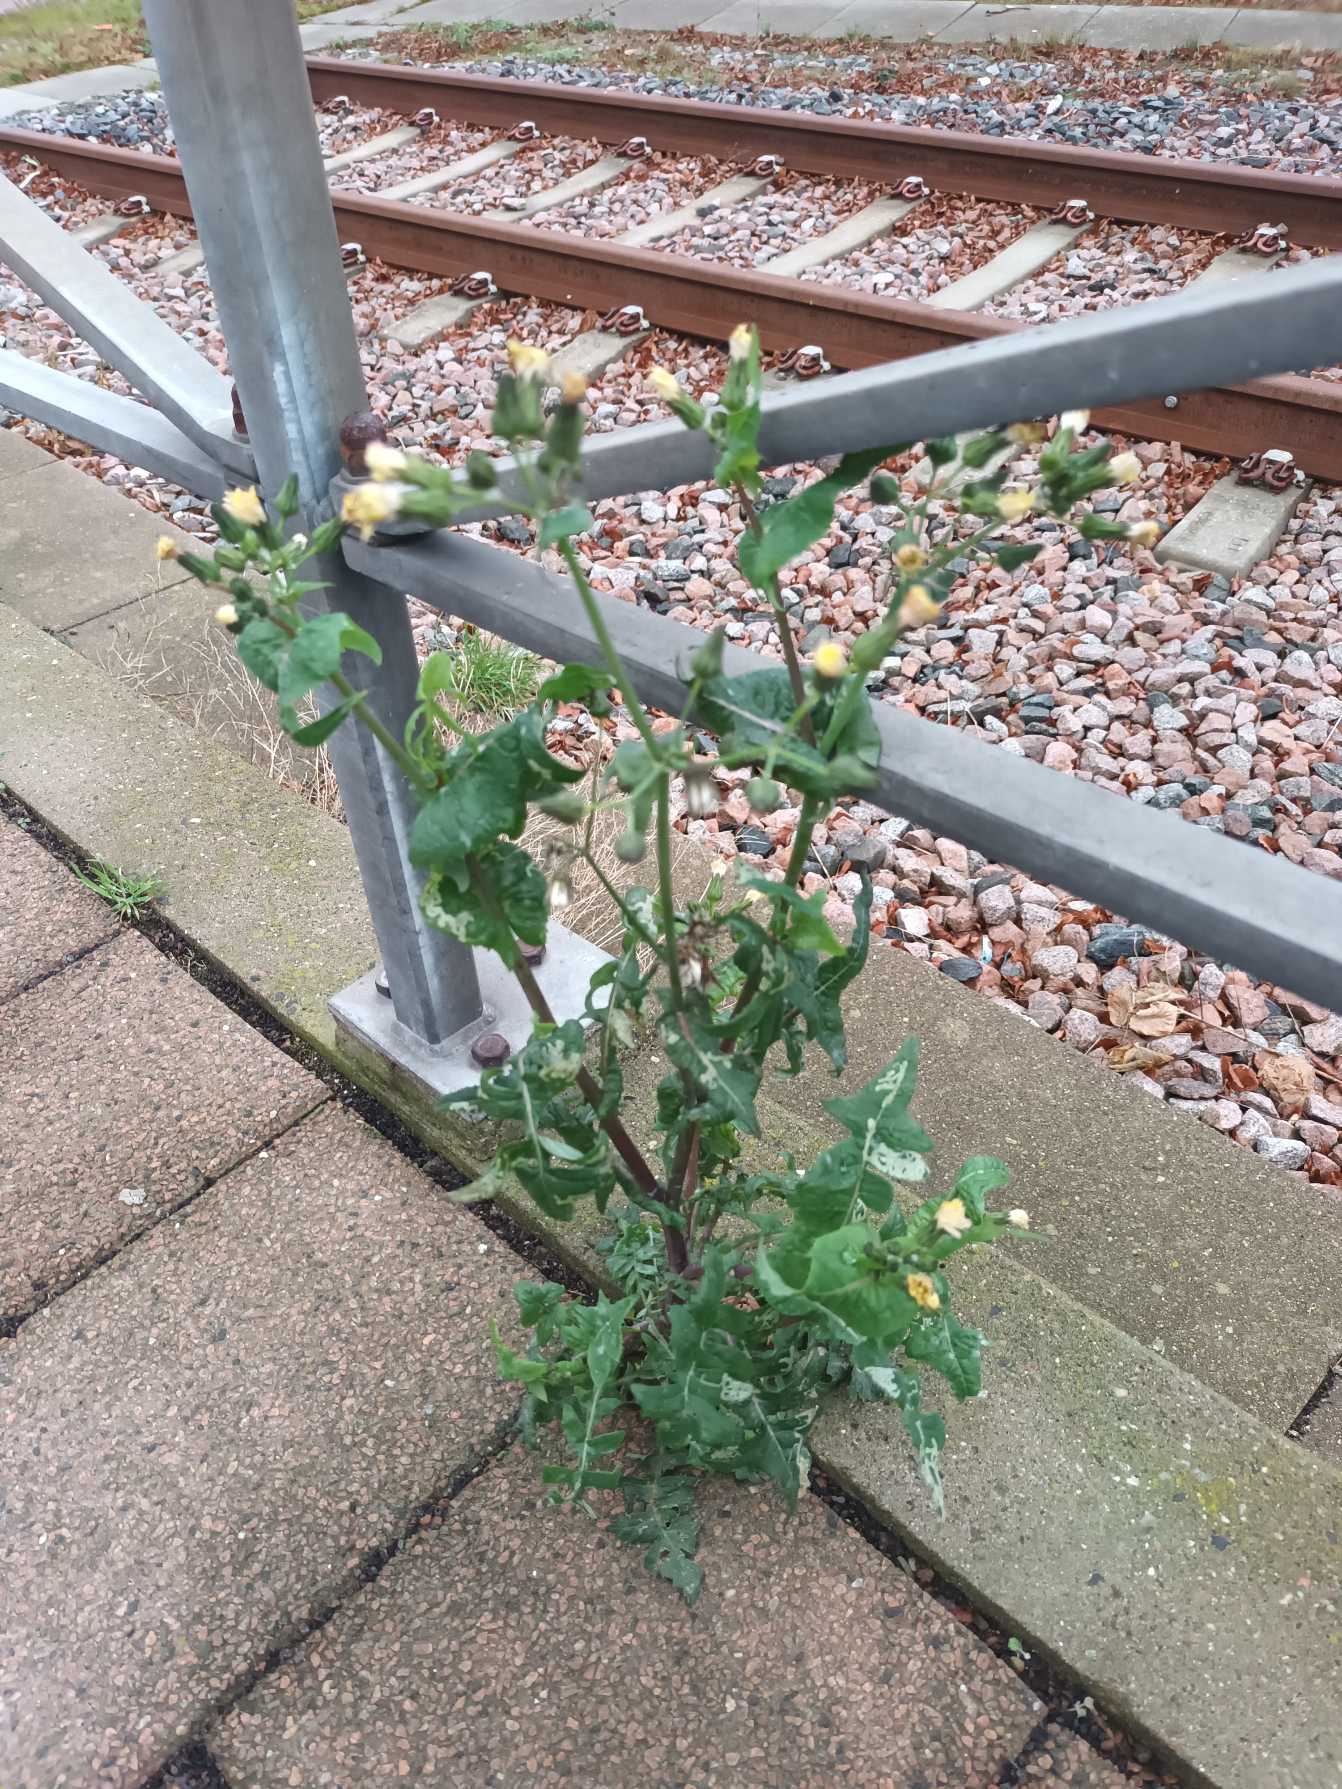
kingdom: Plantae
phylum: Tracheophyta
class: Magnoliopsida
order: Asterales
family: Asteraceae
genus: Sonchus
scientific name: Sonchus oleraceus
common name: Almindelig svinemælk
